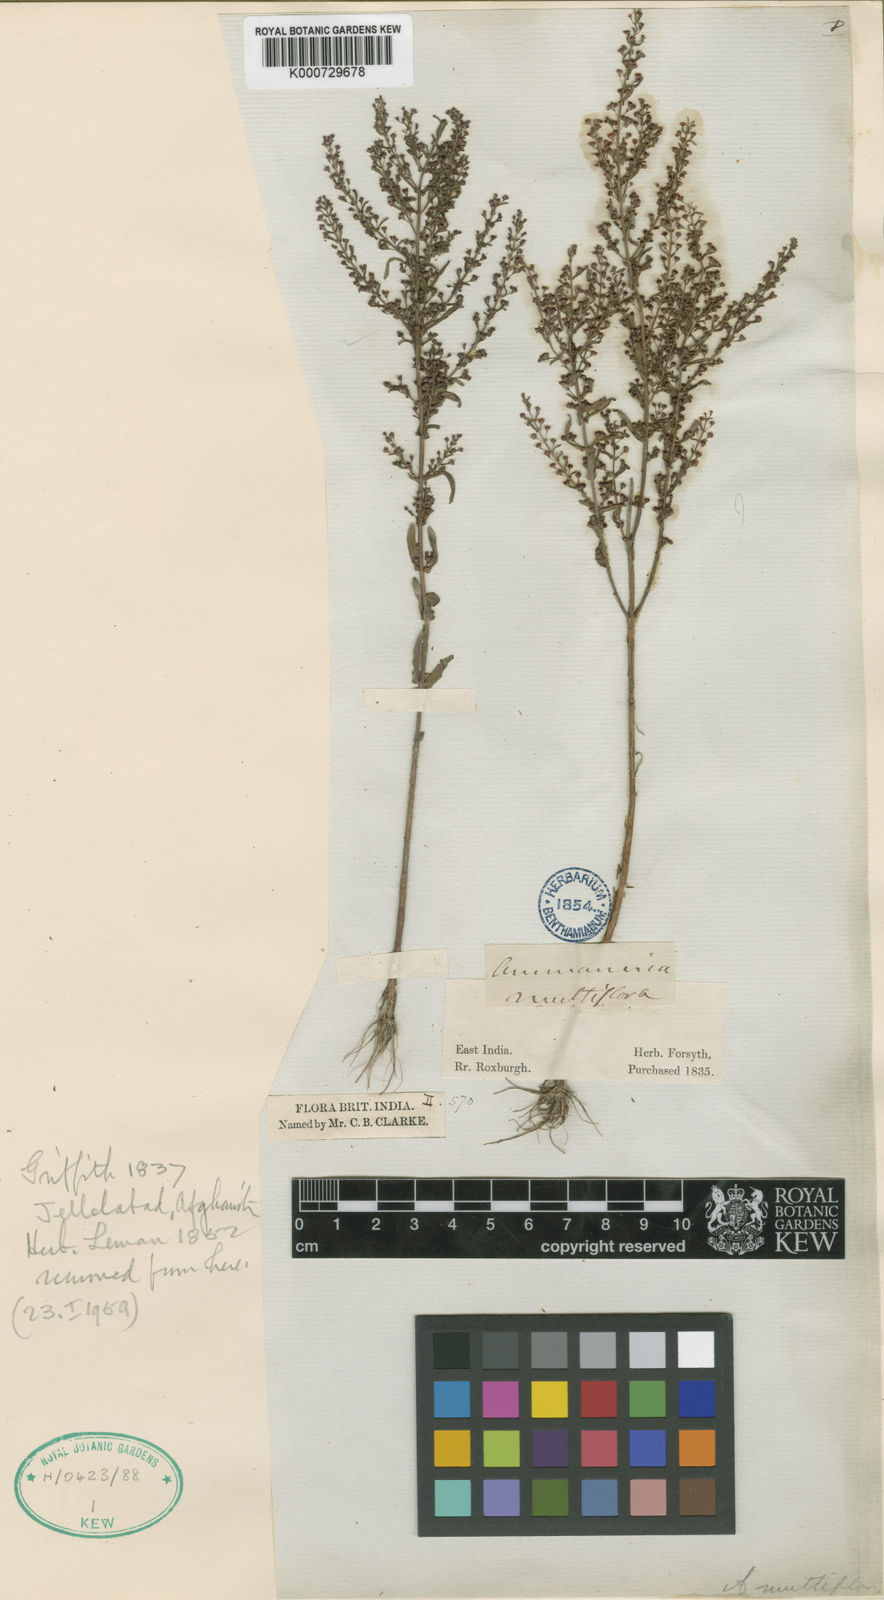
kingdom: Plantae
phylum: Tracheophyta
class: Magnoliopsida
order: Myrtales
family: Lythraceae
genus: Ammannia
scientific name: Ammannia auriculata
